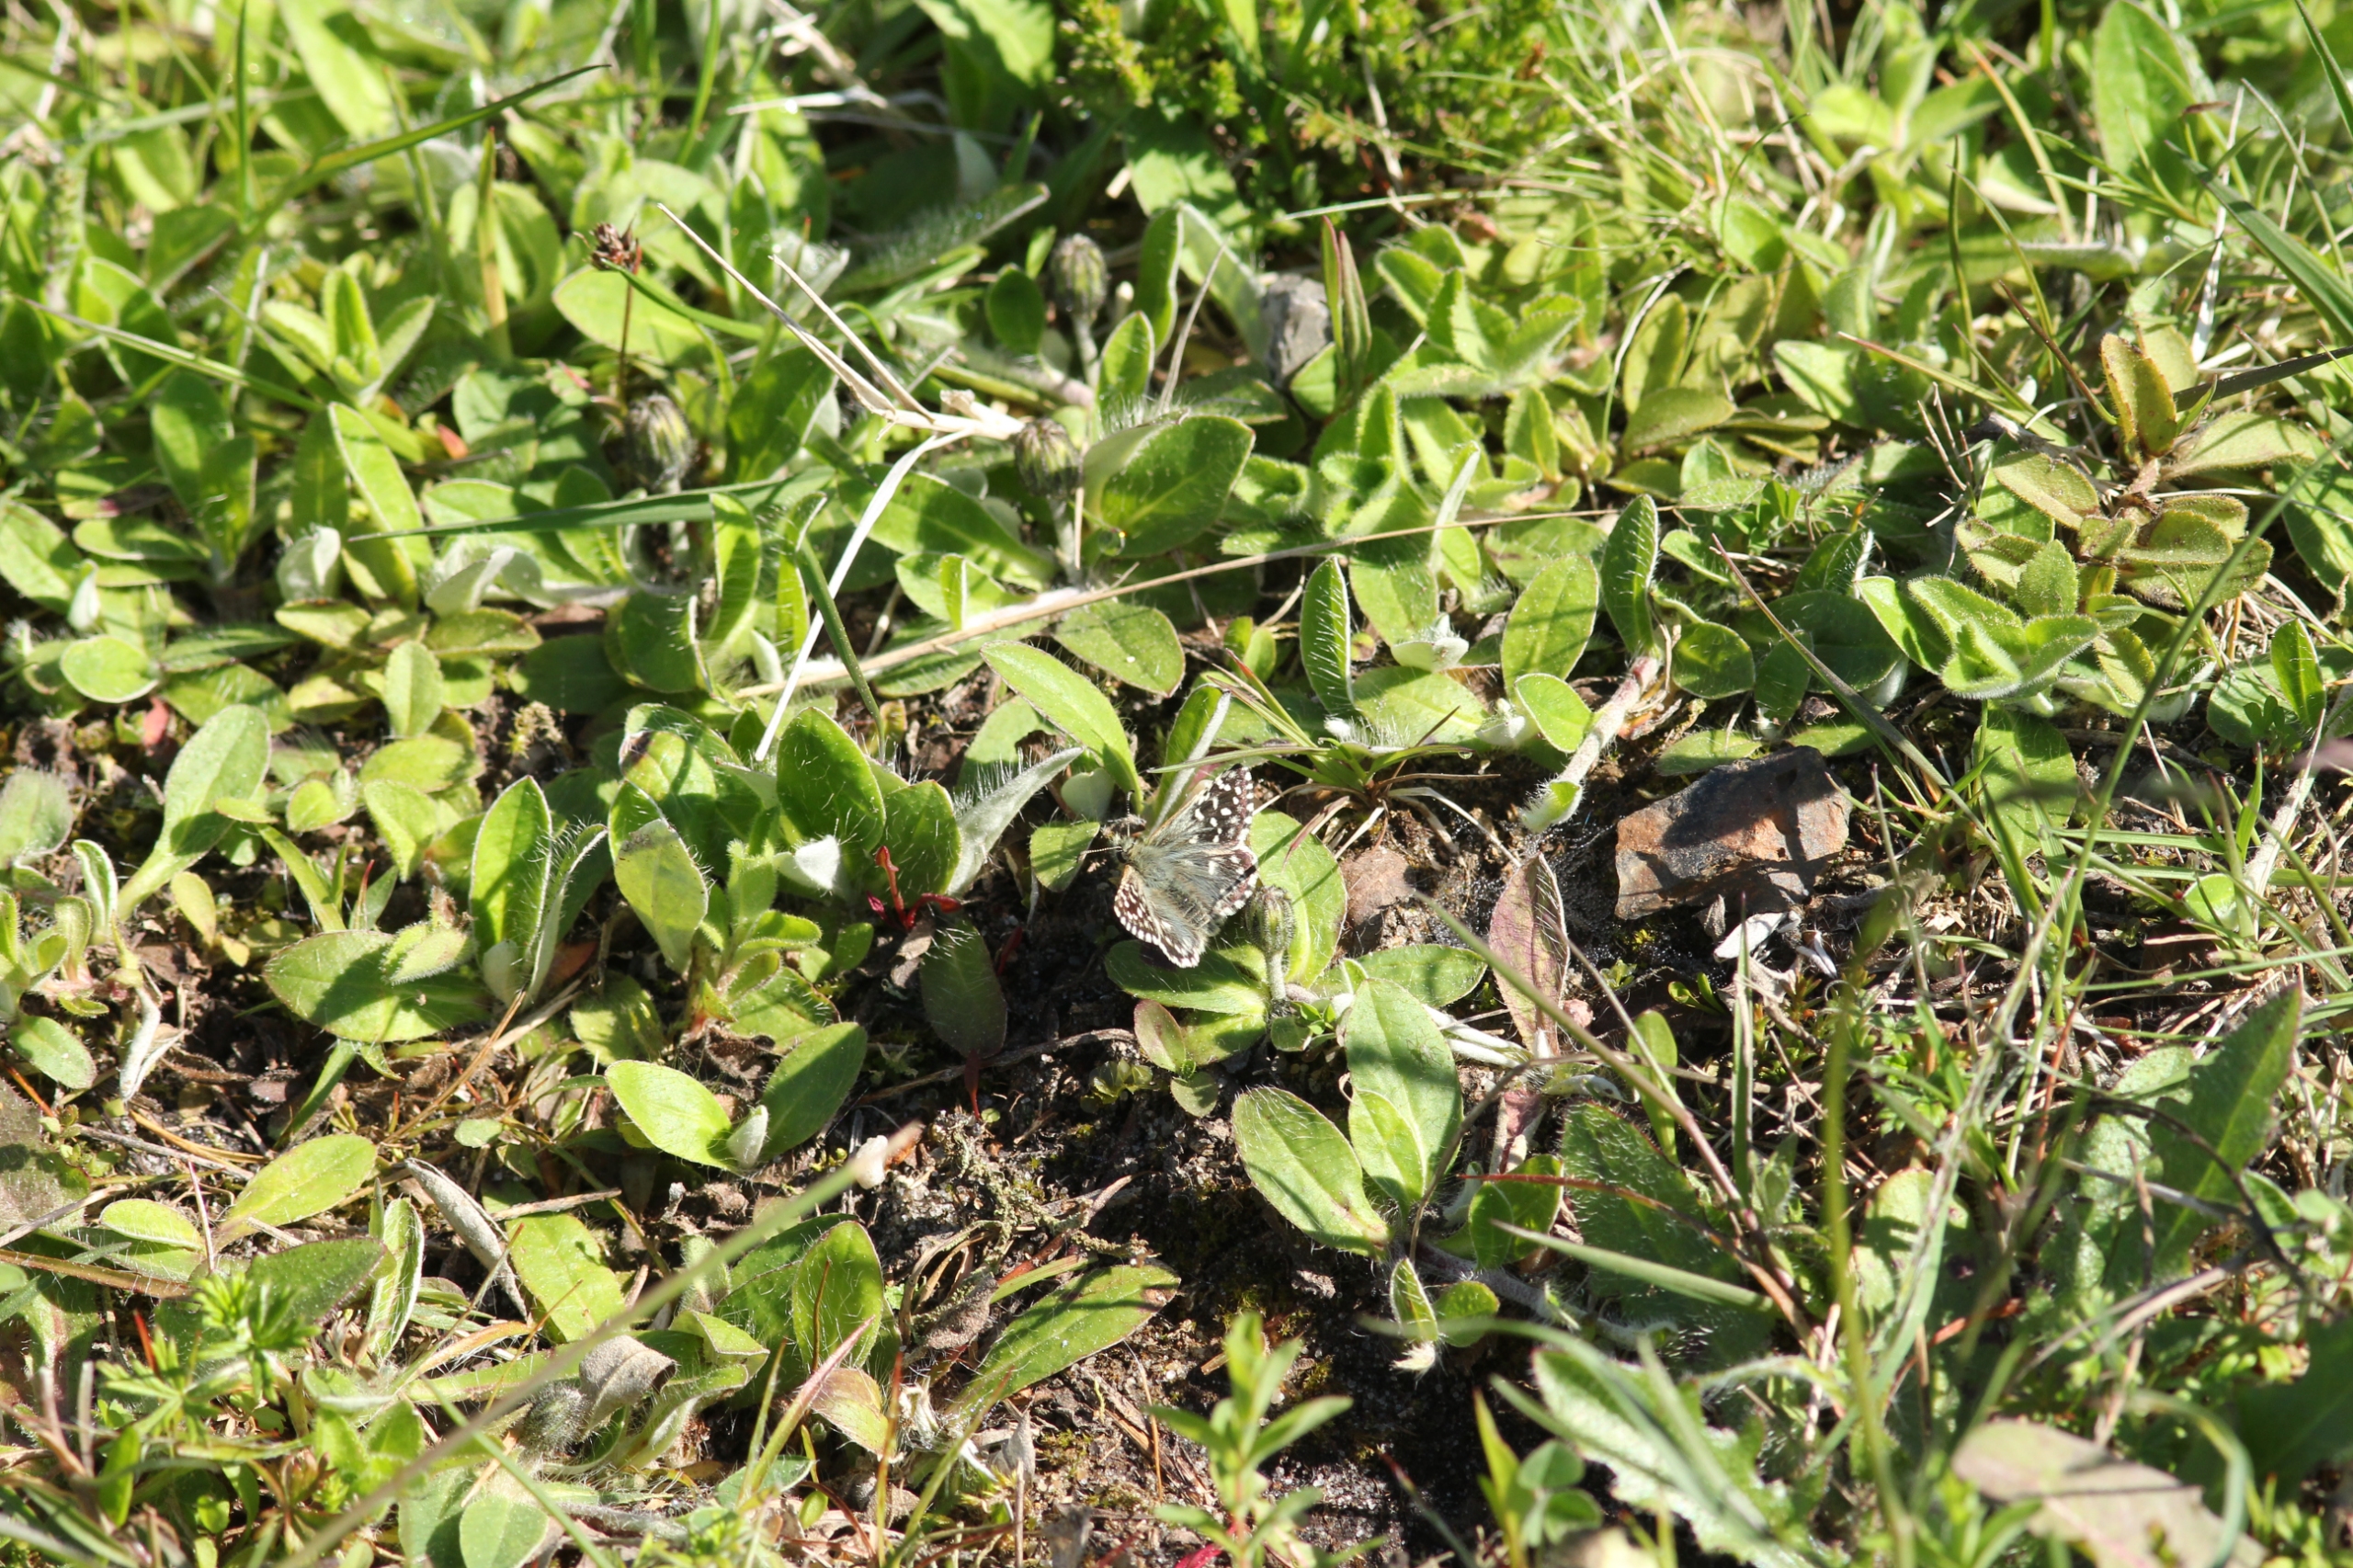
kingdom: Animalia
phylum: Arthropoda
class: Insecta
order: Lepidoptera
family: Hesperiidae
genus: Pyrgus
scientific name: Pyrgus malvae
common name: Spættet bredpande
